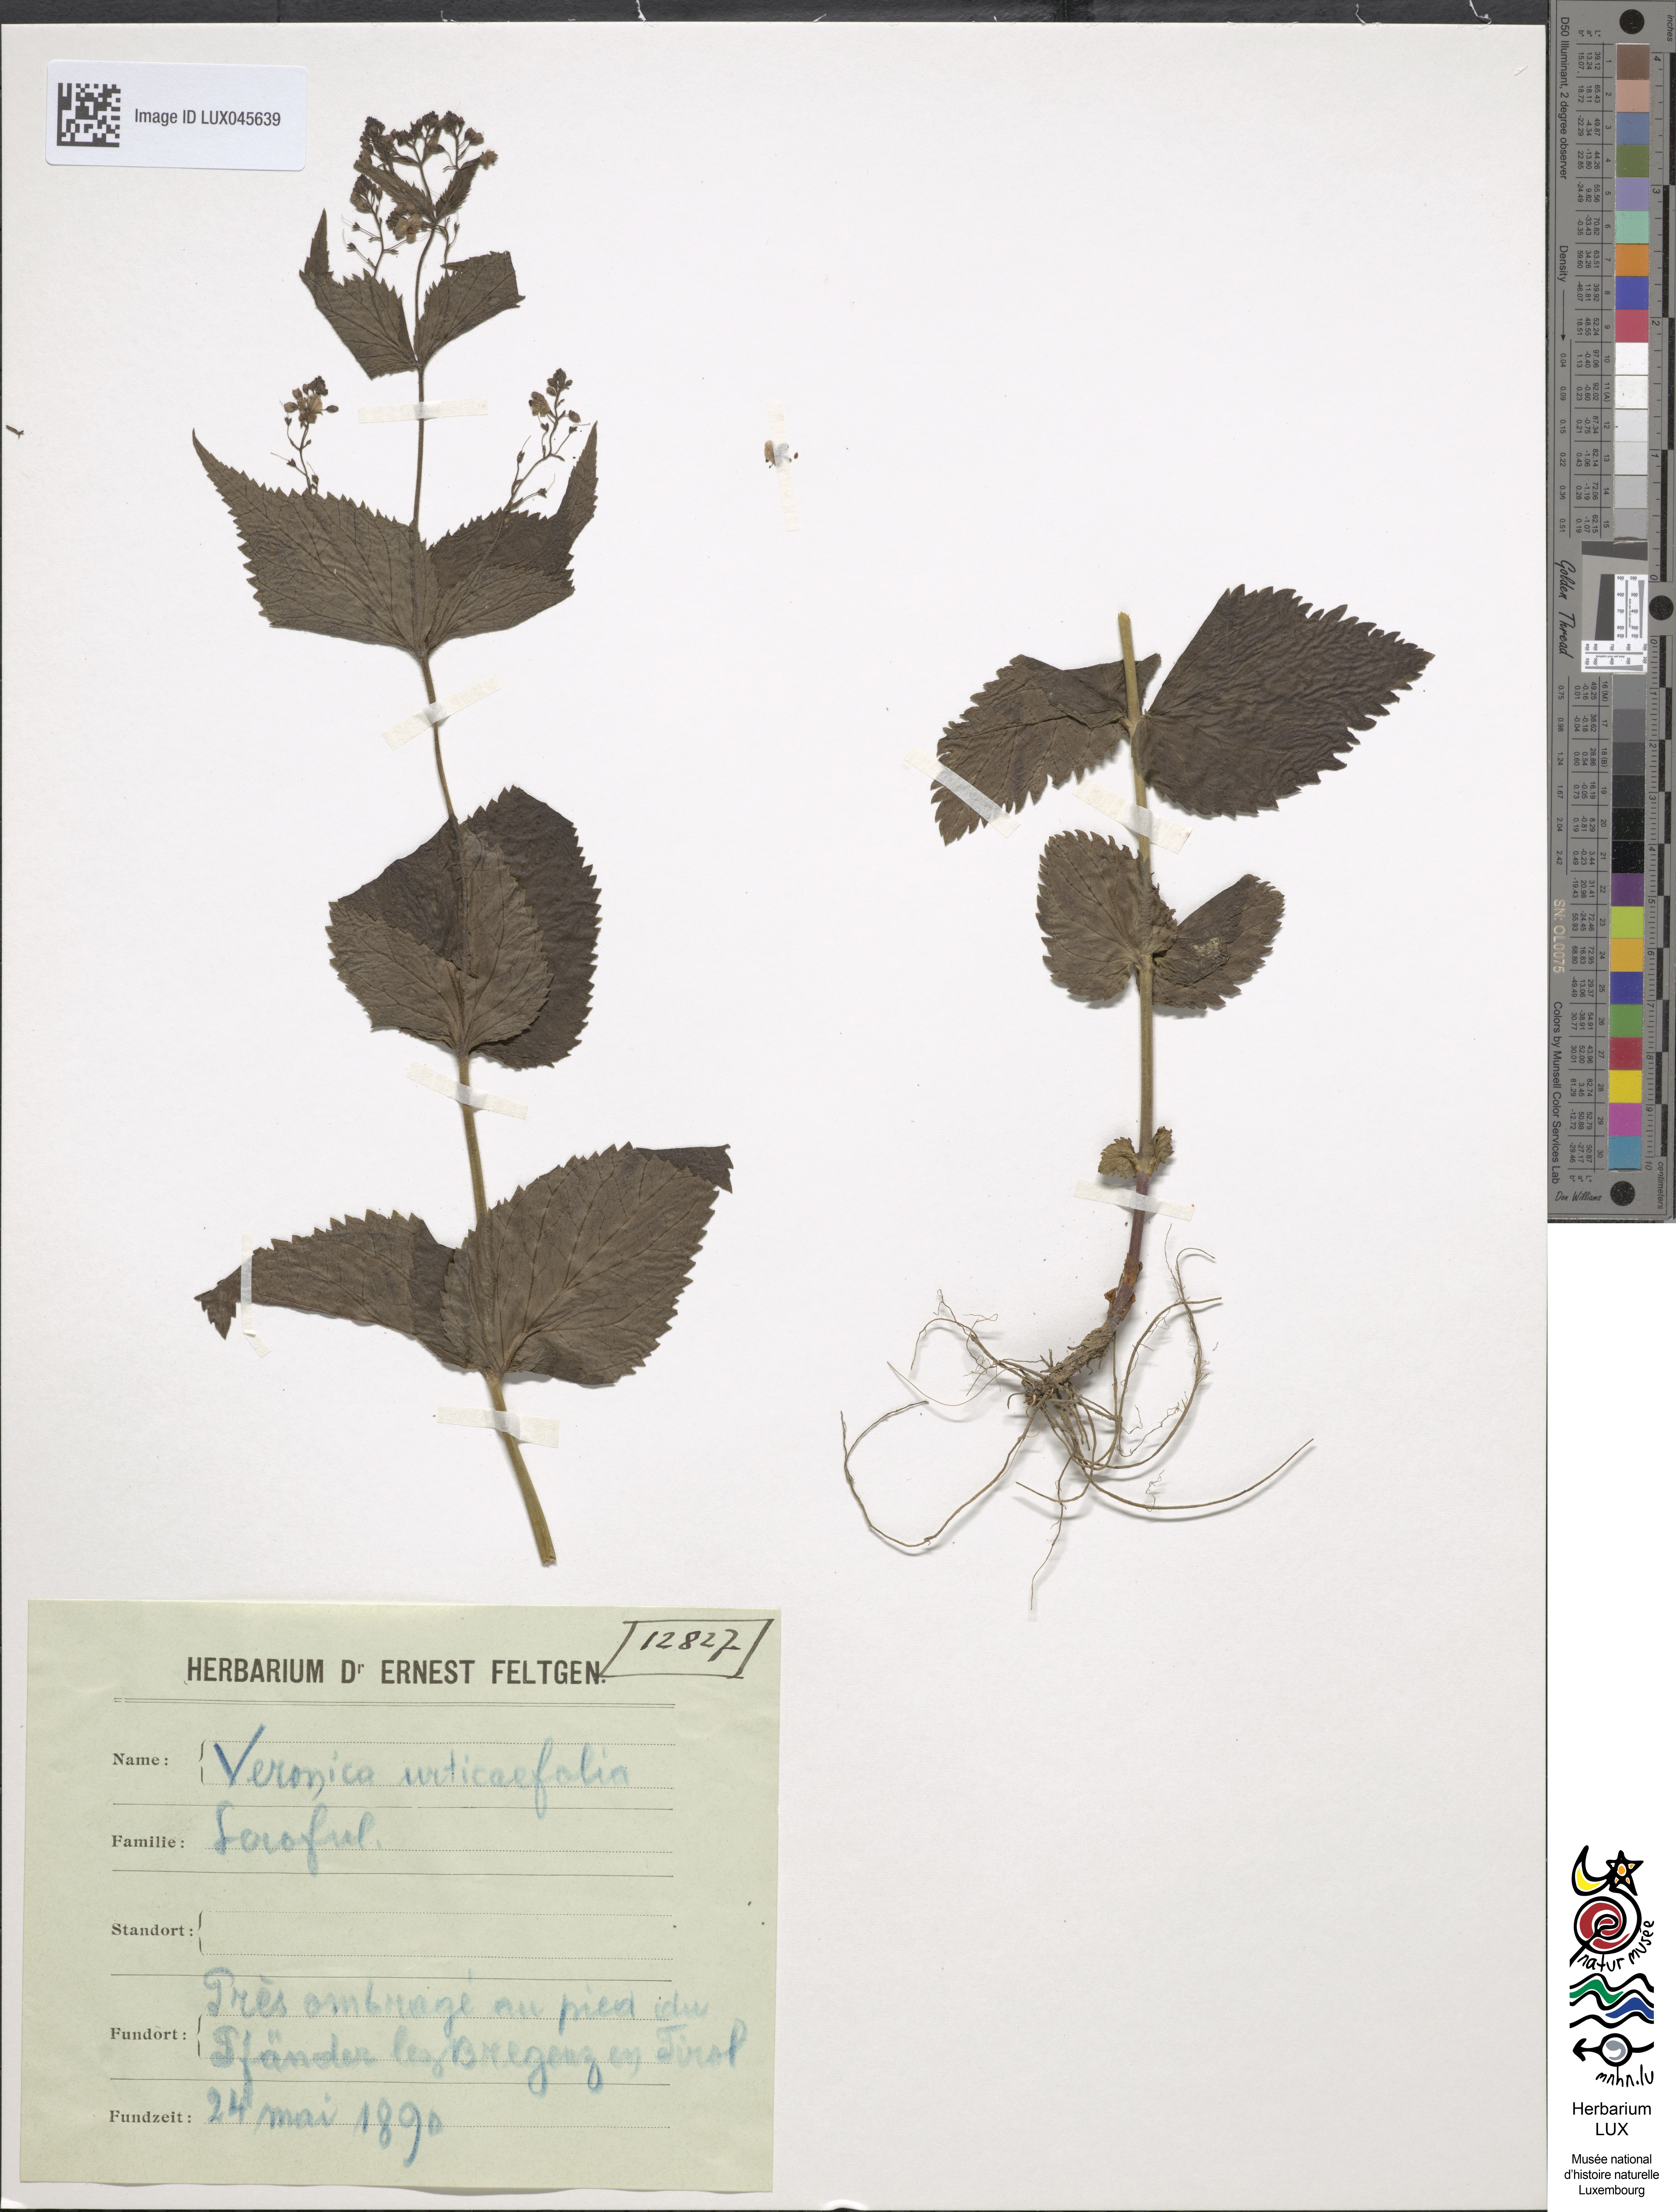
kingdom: Plantae
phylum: Tracheophyta
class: Magnoliopsida
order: Lamiales
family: Plantaginaceae
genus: Veronica
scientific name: Veronica urticifolia
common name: Nettle-leaf speedwell
